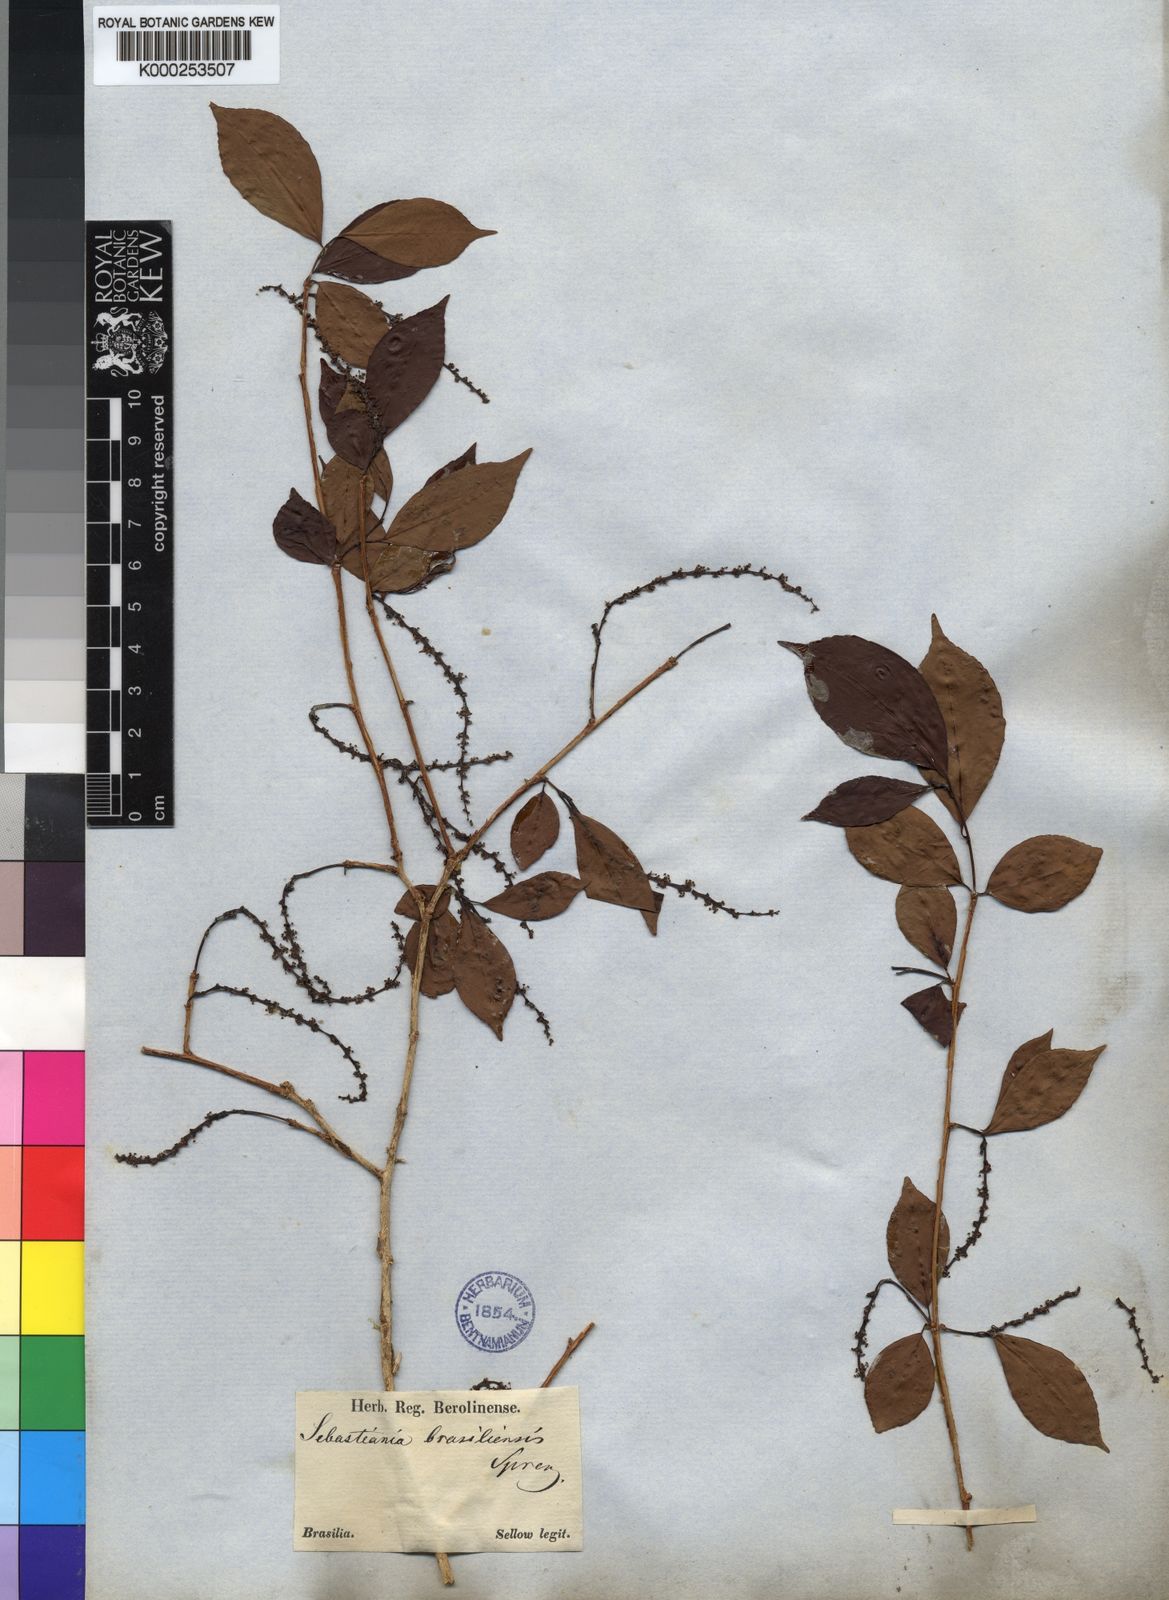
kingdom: Plantae
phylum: Tracheophyta
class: Magnoliopsida
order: Malpighiales
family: Euphorbiaceae
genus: Sebastiania
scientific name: Sebastiania brasiliensis
